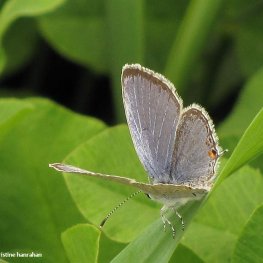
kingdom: Animalia
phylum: Arthropoda
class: Insecta
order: Lepidoptera
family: Lycaenidae
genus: Elkalyce
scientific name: Elkalyce comyntas
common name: Eastern Tailed-Blue
